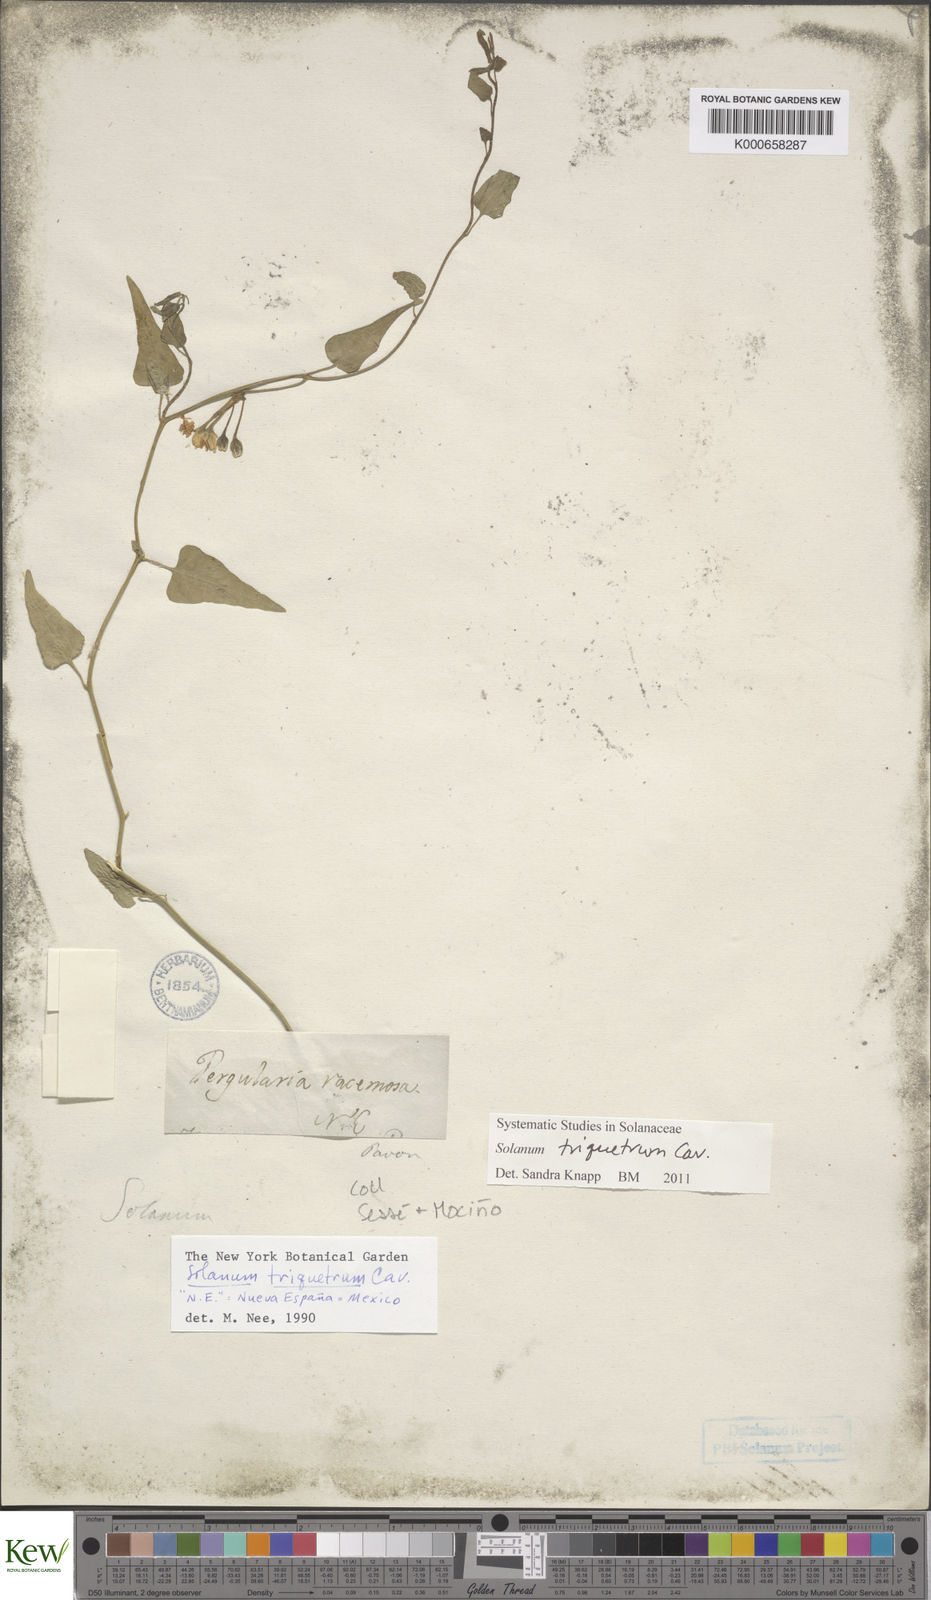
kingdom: Plantae
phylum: Tracheophyta
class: Magnoliopsida
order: Solanales
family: Solanaceae
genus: Solanum
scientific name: Solanum triquetrum
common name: Texas nightshade
